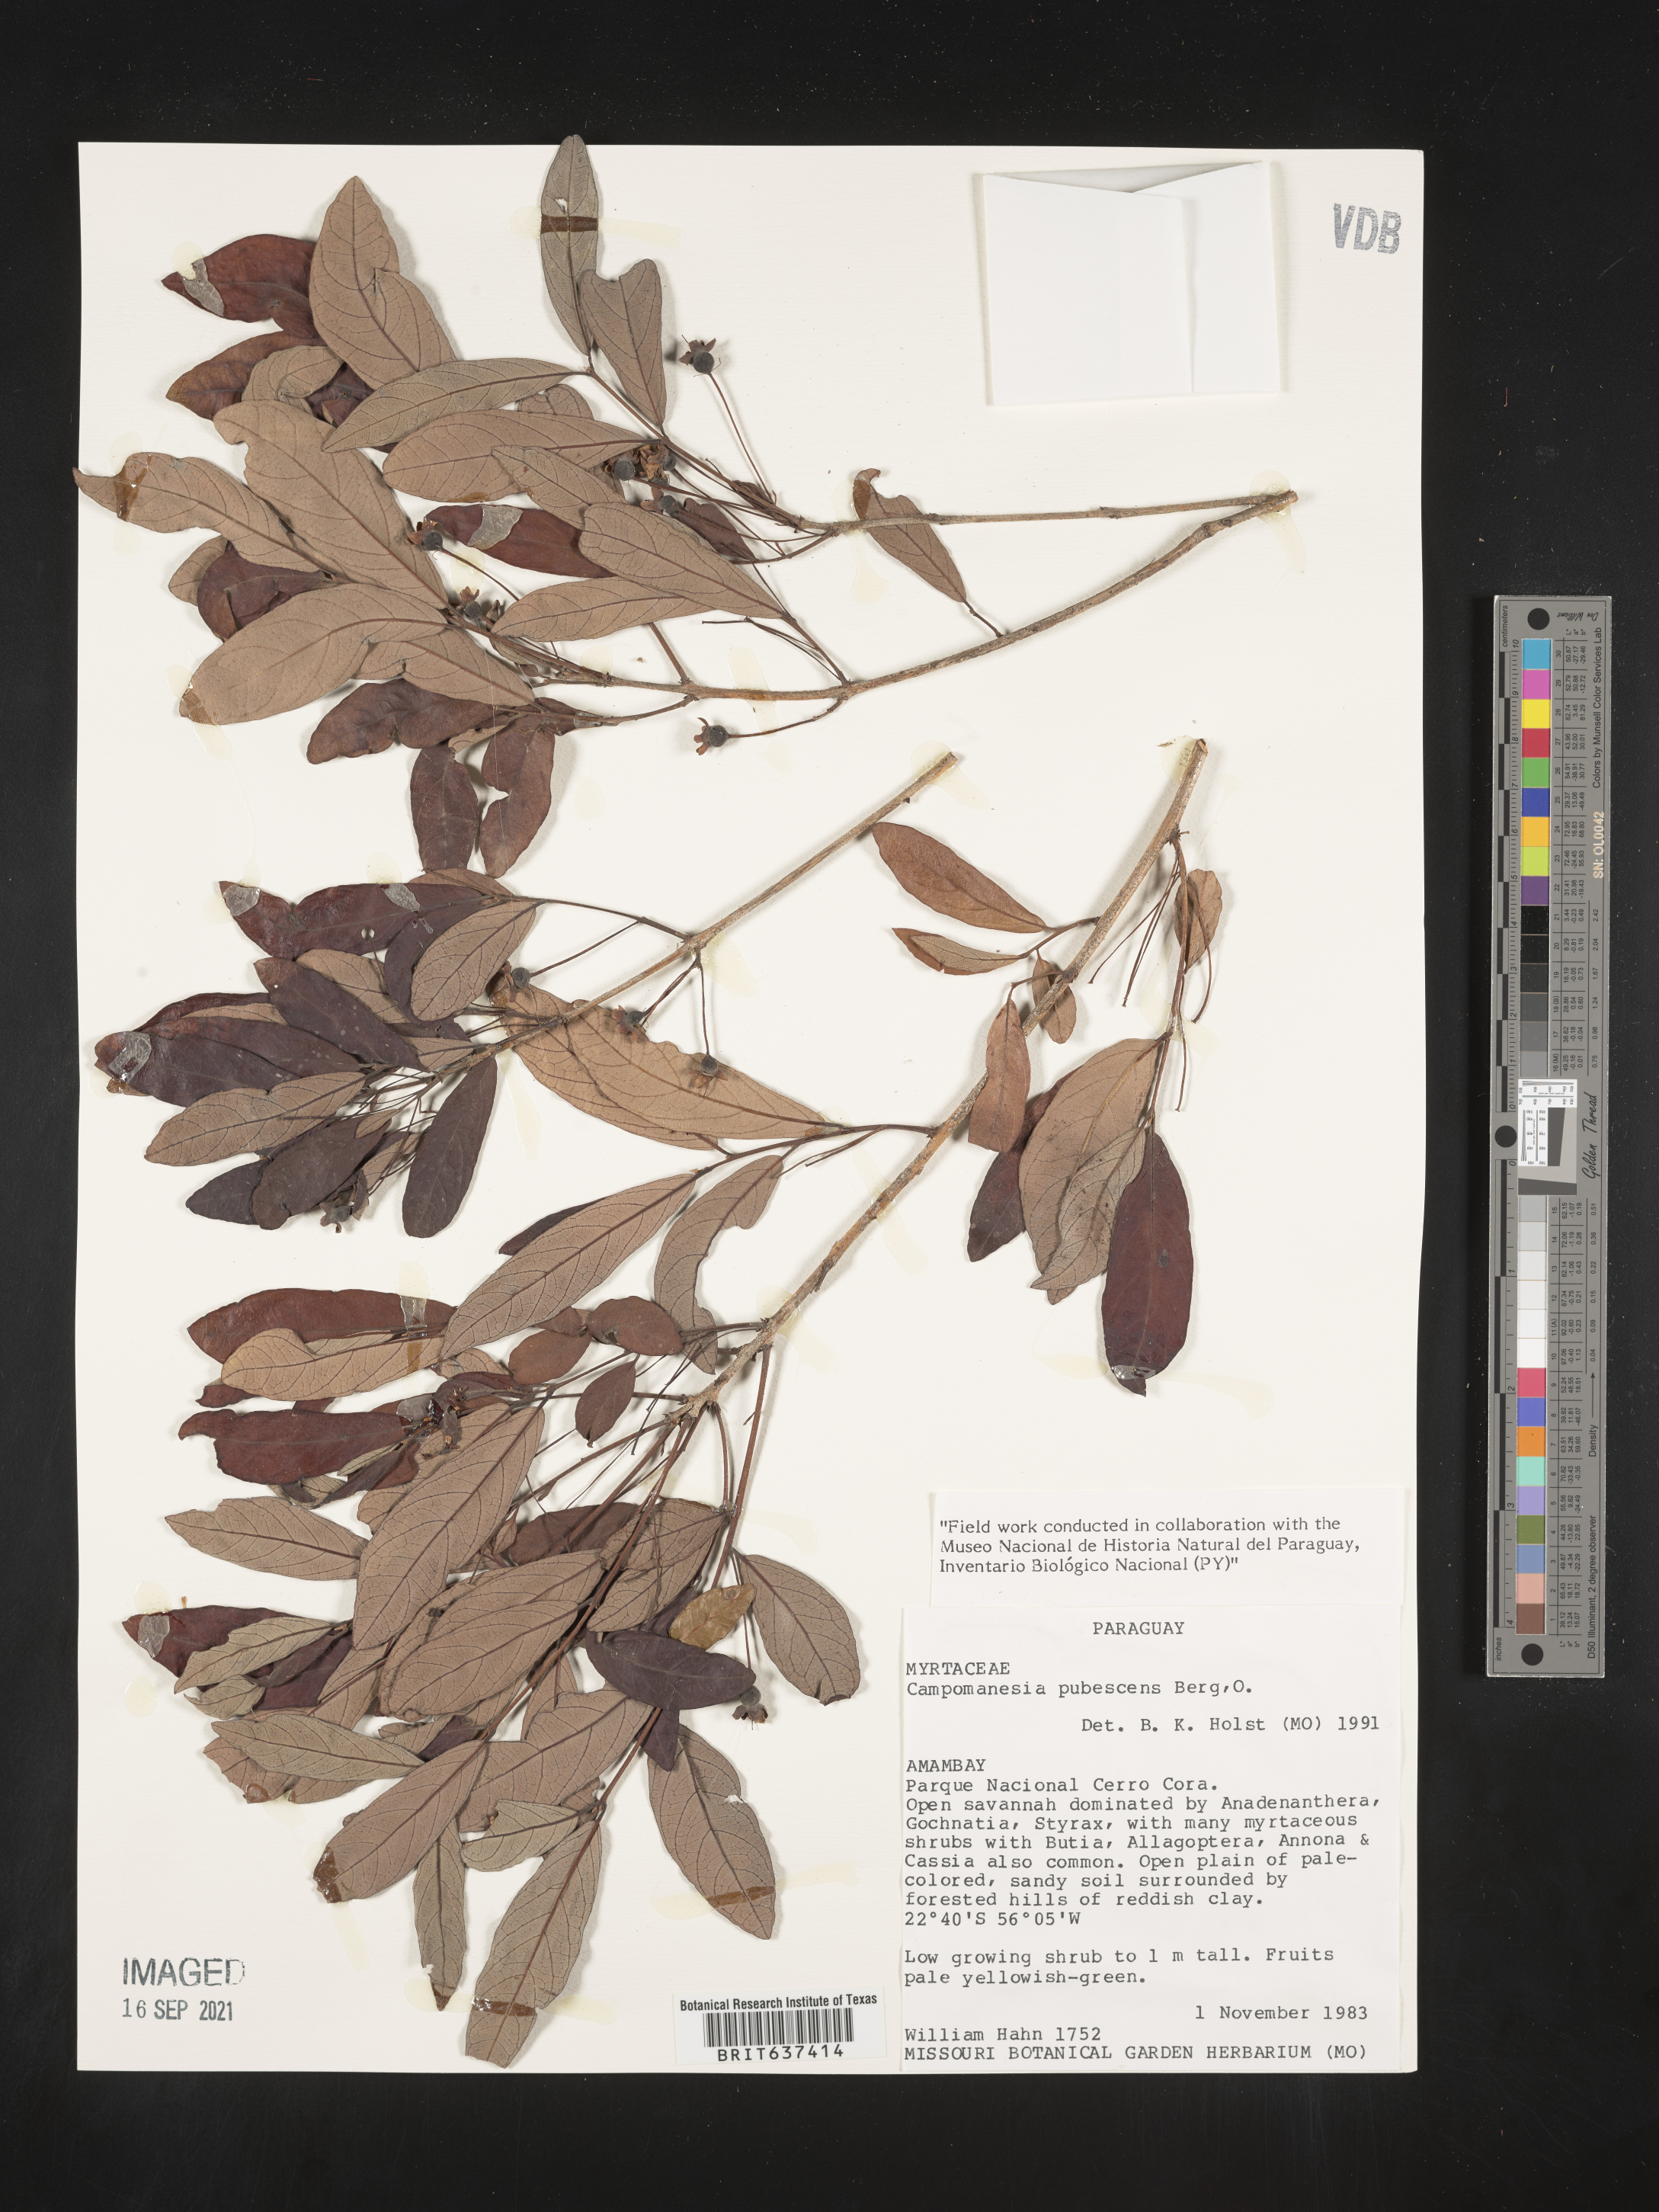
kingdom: Plantae
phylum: Tracheophyta
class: Magnoliopsida
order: Myrtales
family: Myrtaceae
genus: Campomanesia
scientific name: Campomanesia
